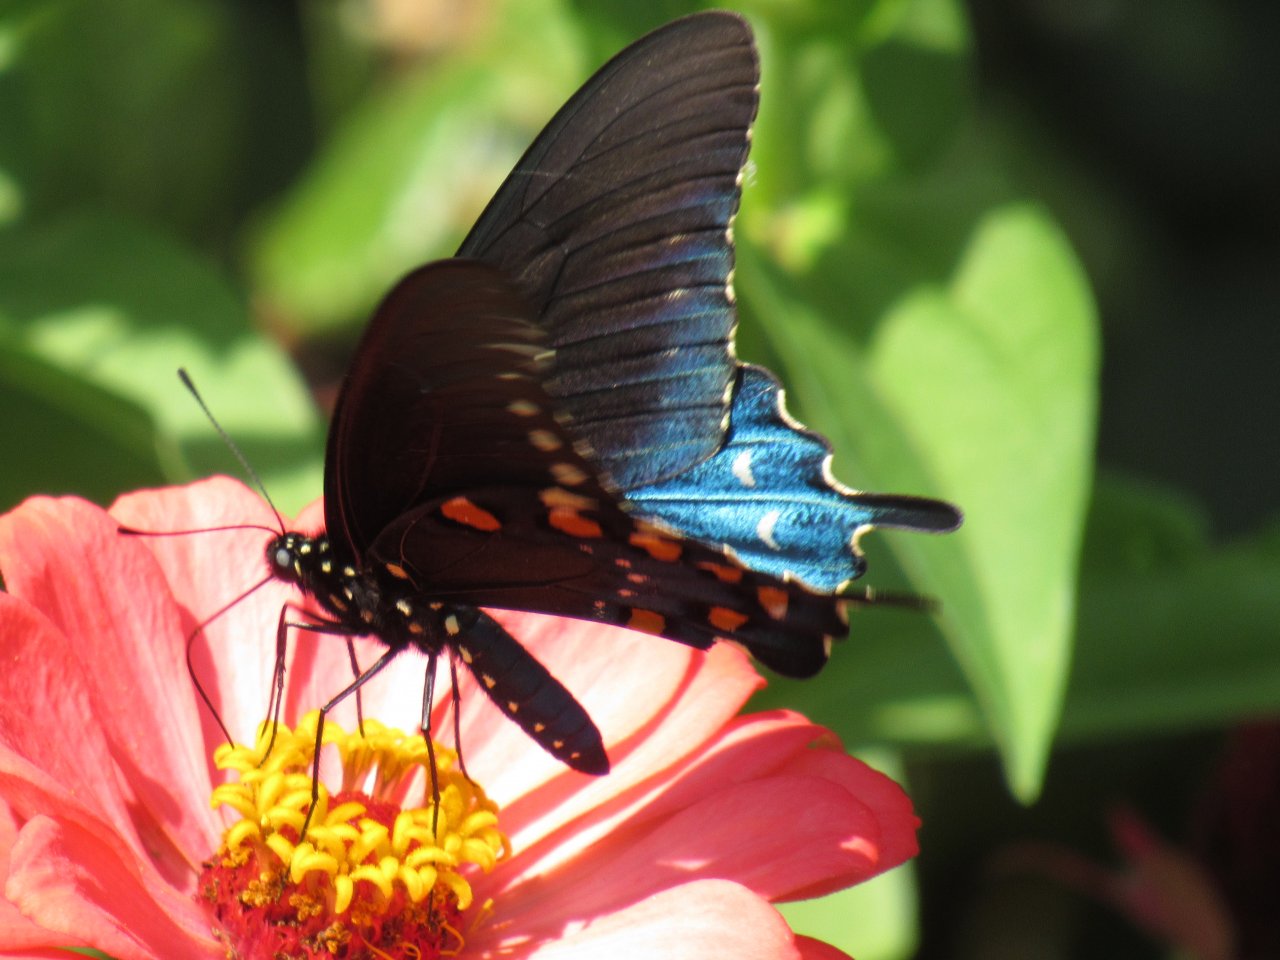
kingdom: Animalia
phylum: Arthropoda
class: Insecta
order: Lepidoptera
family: Papilionidae
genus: Battus
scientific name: Battus philenor
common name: Pipevine Swallowtail
